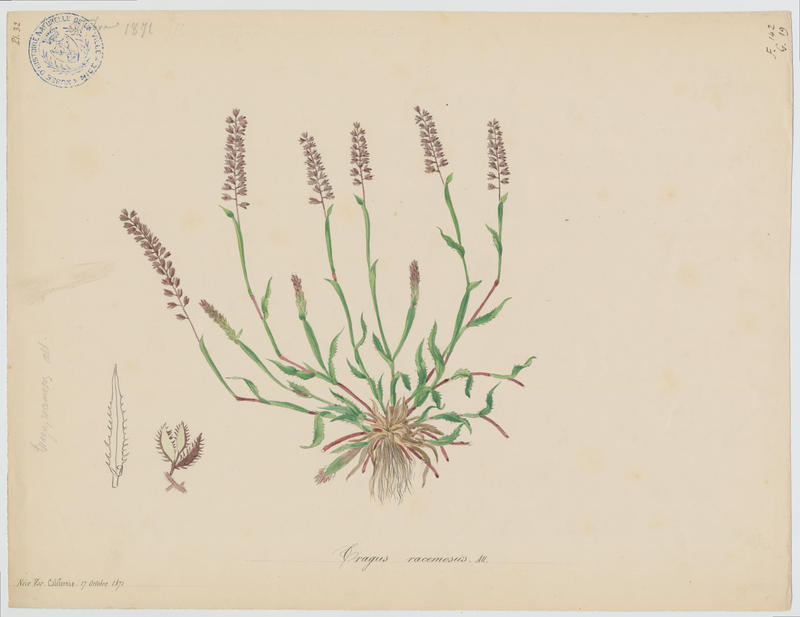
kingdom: Plantae
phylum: Tracheophyta
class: Liliopsida
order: Poales
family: Poaceae
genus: Tragus
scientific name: Tragus racemosus
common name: European bur-grass
